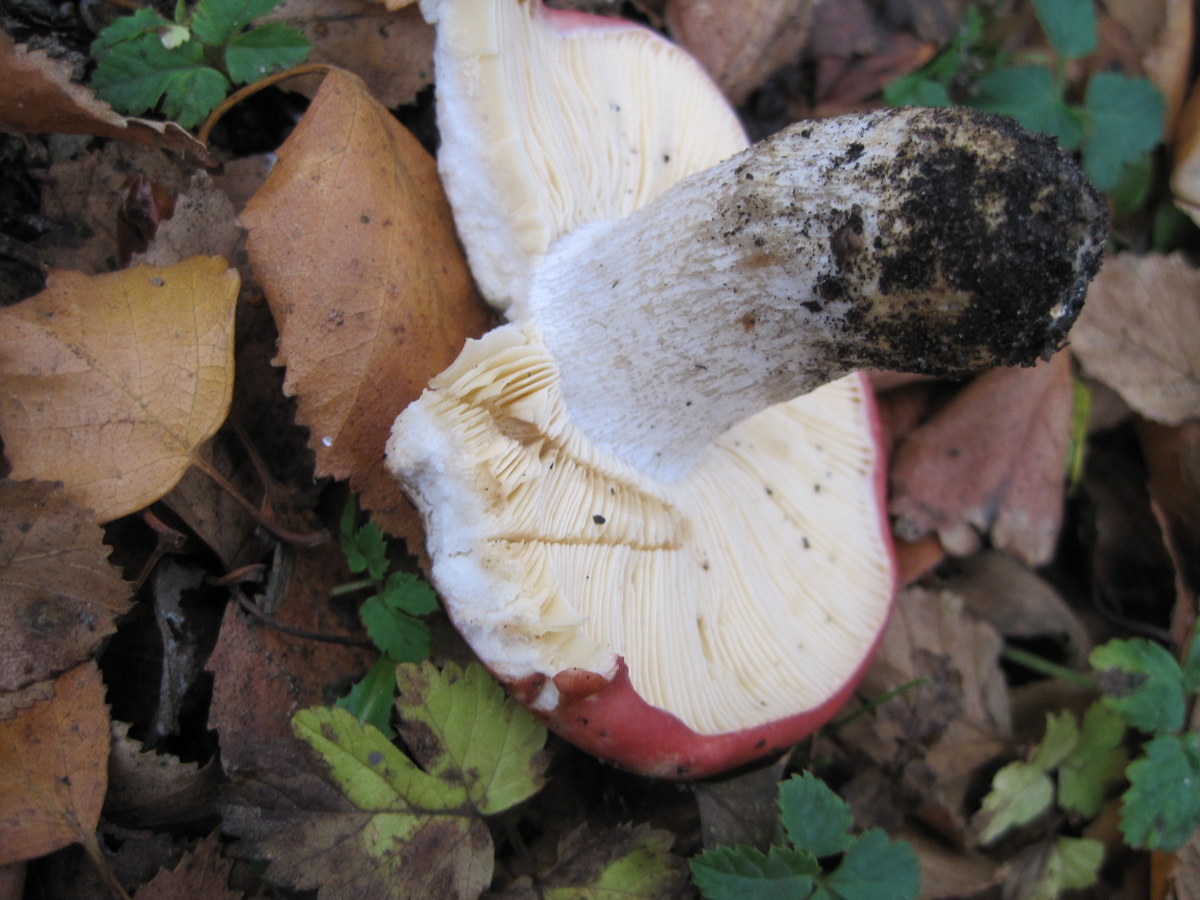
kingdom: Fungi
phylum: Basidiomycota
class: Agaricomycetes
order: Russulales
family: Russulaceae
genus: Russula
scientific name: Russula depallens
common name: falmende skørhat
